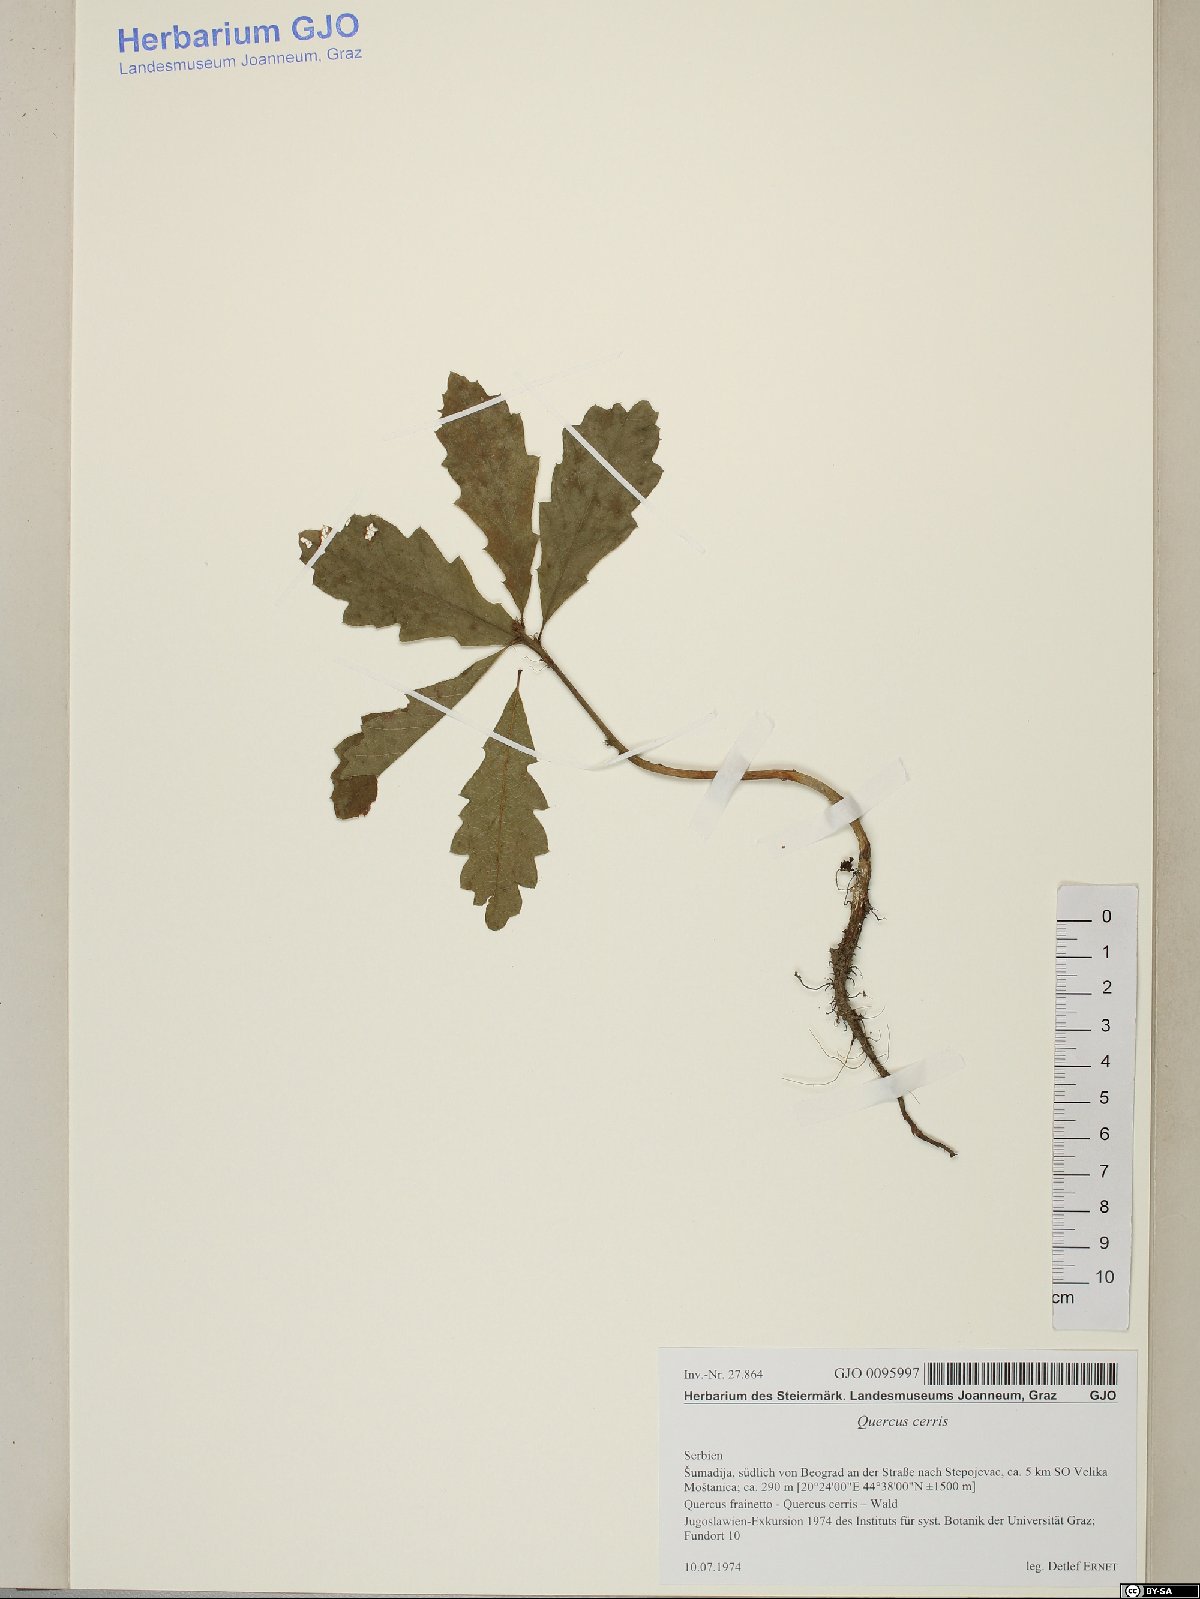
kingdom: Plantae
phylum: Tracheophyta
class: Magnoliopsida
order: Fagales
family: Fagaceae
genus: Quercus
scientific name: Quercus cerris
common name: Turkey oak
